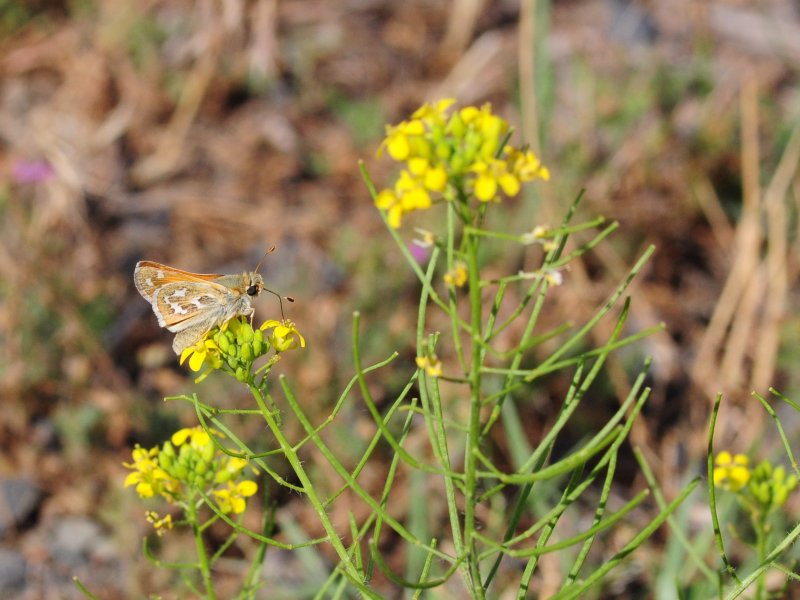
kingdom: Animalia
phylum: Arthropoda
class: Insecta
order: Lepidoptera
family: Hesperiidae
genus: Hesperia
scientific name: Hesperia comma
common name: Western Branded Skipper
